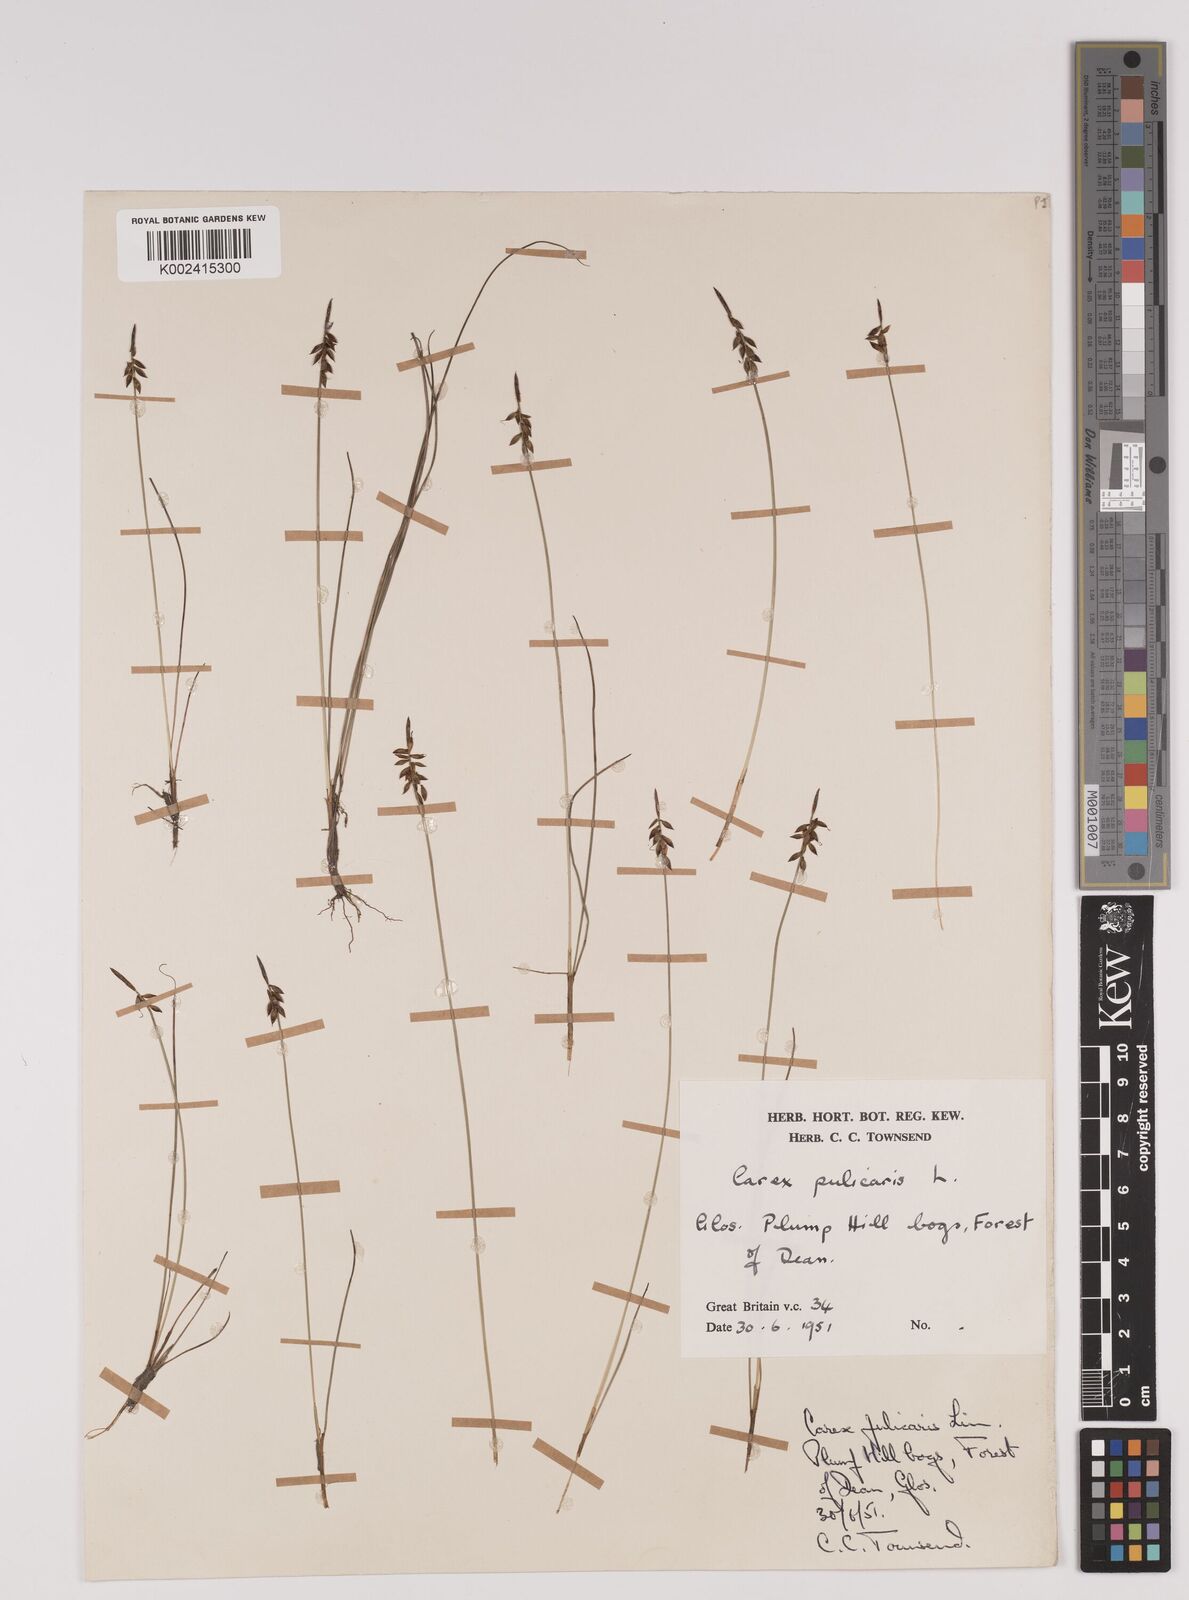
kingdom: Plantae
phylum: Tracheophyta
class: Liliopsida
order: Poales
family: Cyperaceae
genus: Carex
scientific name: Carex pulicaris
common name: Flea sedge
